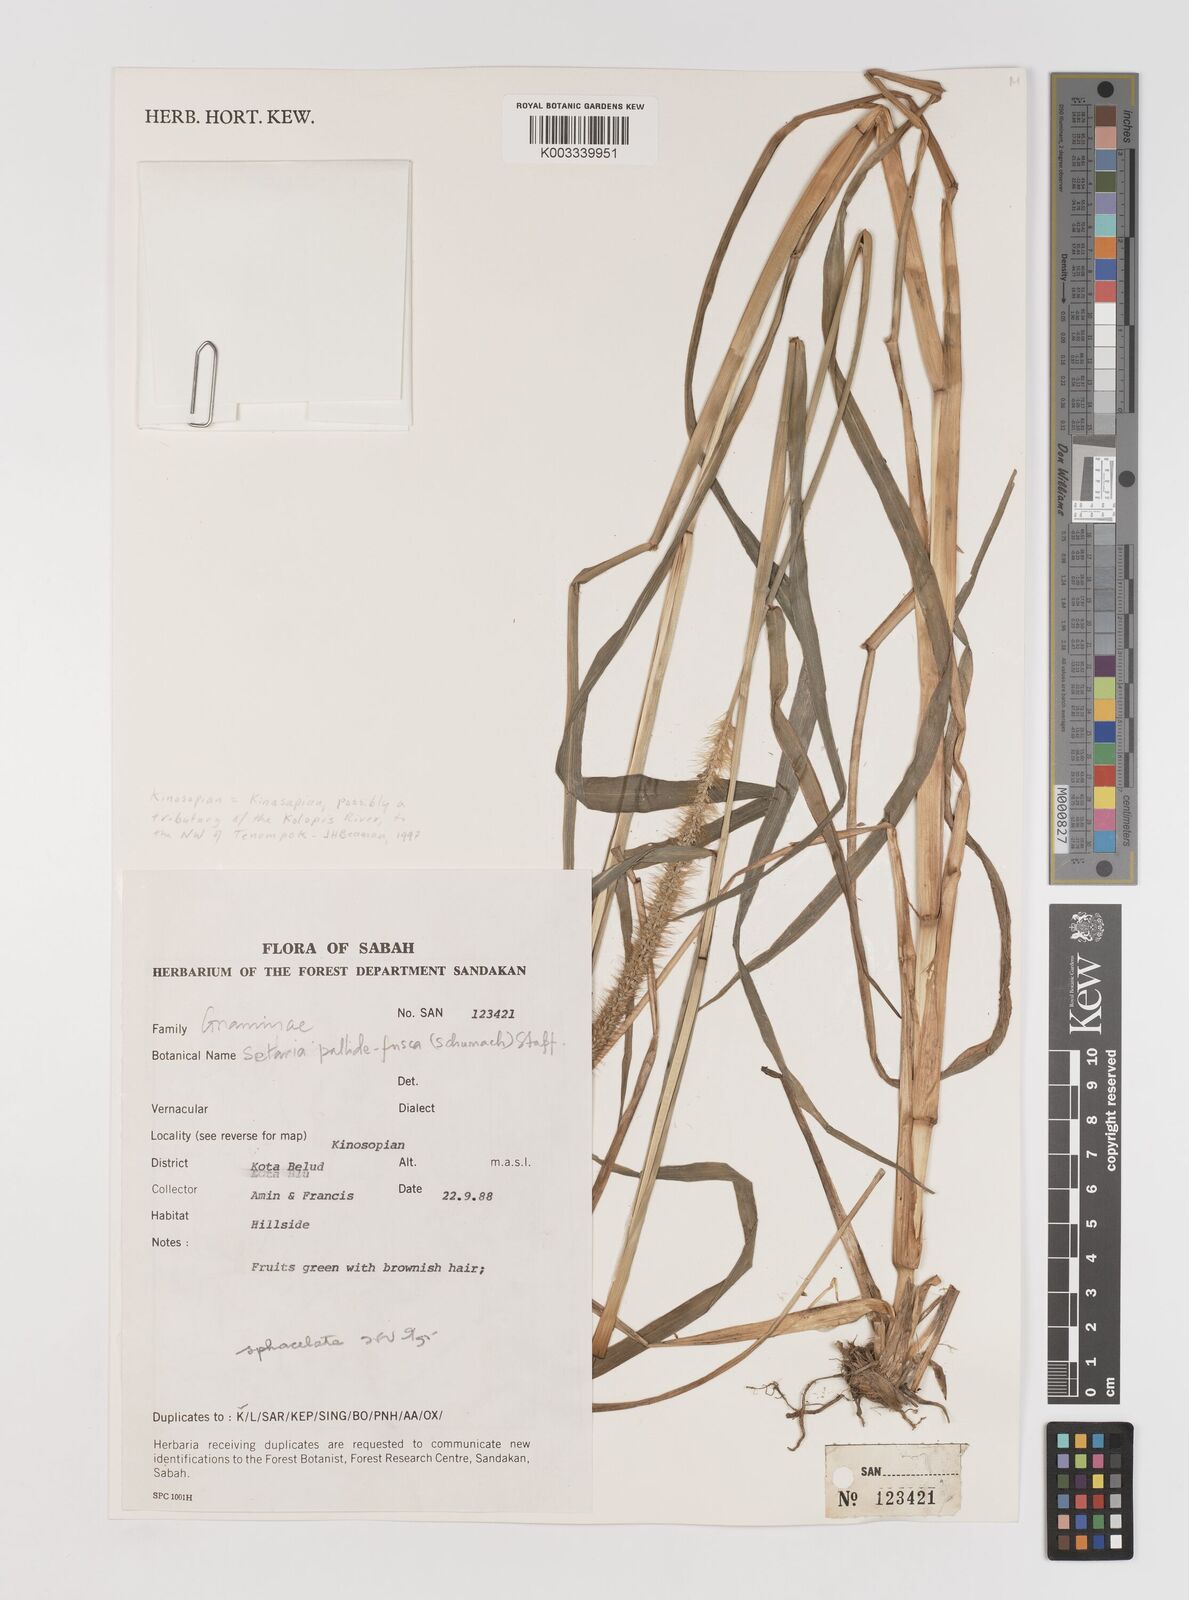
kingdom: Plantae
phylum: Tracheophyta
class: Liliopsida
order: Poales
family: Poaceae
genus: Setaria
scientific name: Setaria parviflora
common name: Knotroot bristle-grass
